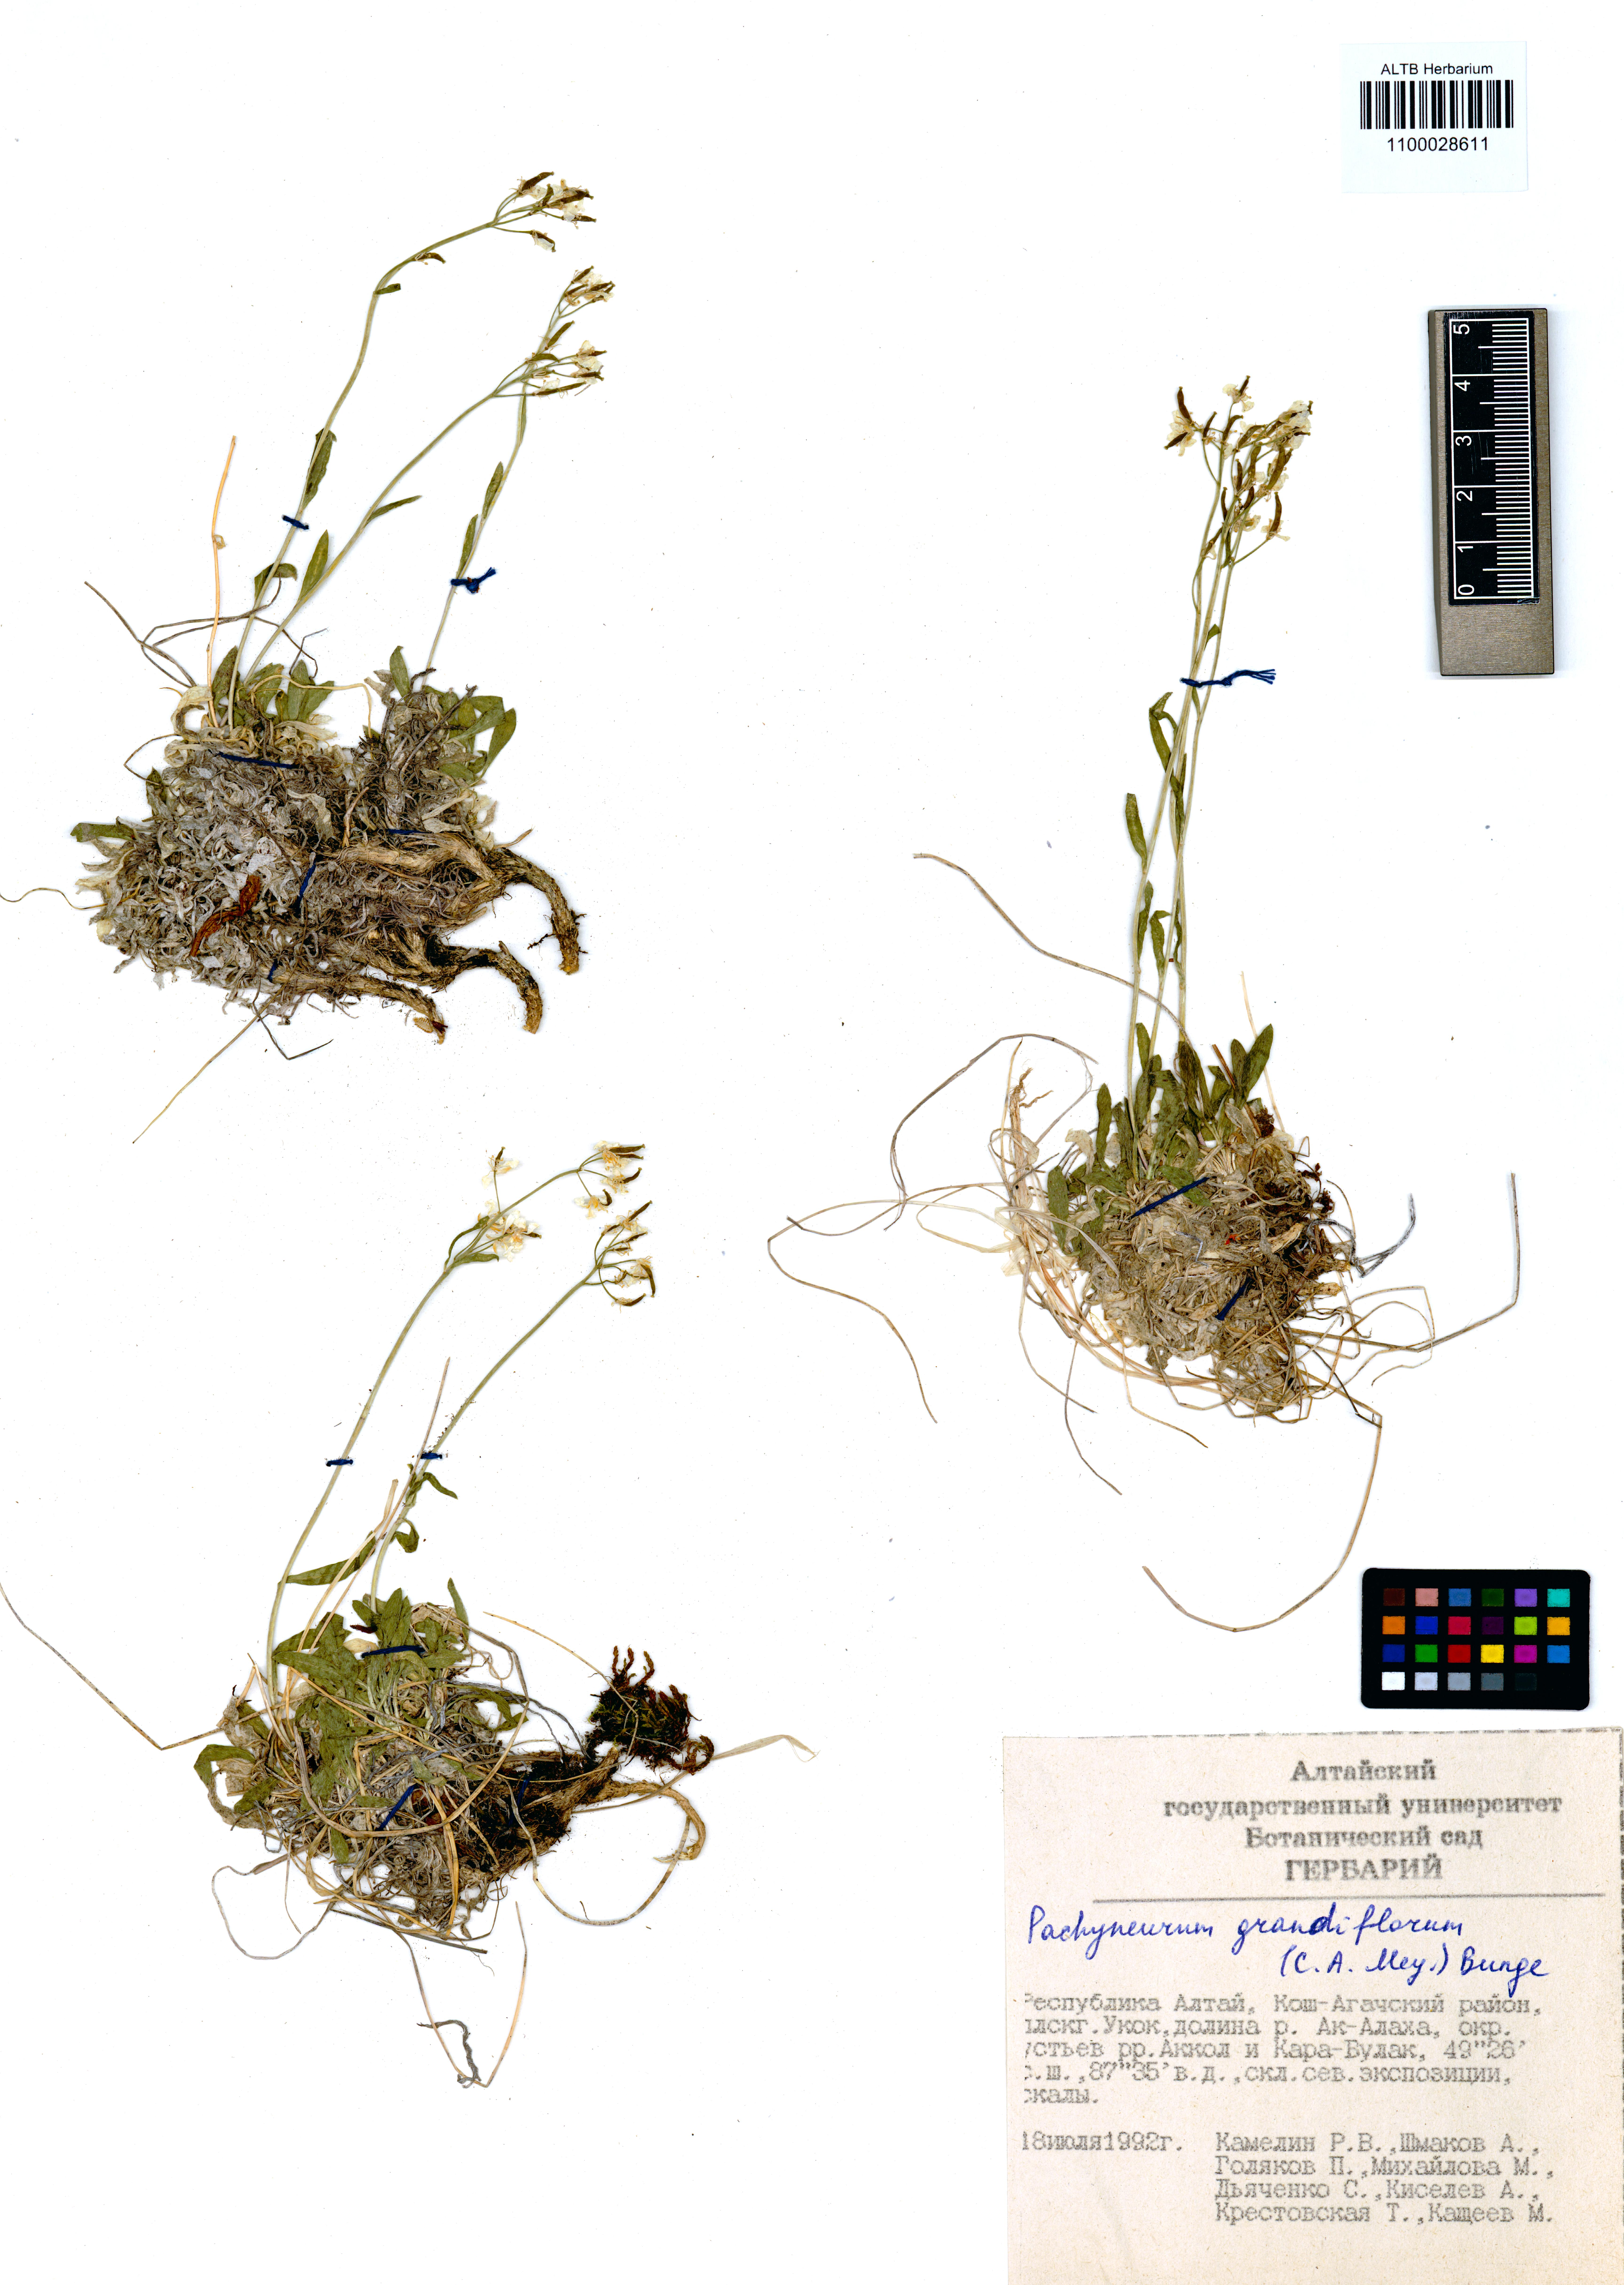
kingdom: Plantae
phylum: Tracheophyta
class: Magnoliopsida
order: Brassicales
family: Brassicaceae
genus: Pachyneurum
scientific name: Pachyneurum grandiflorum
